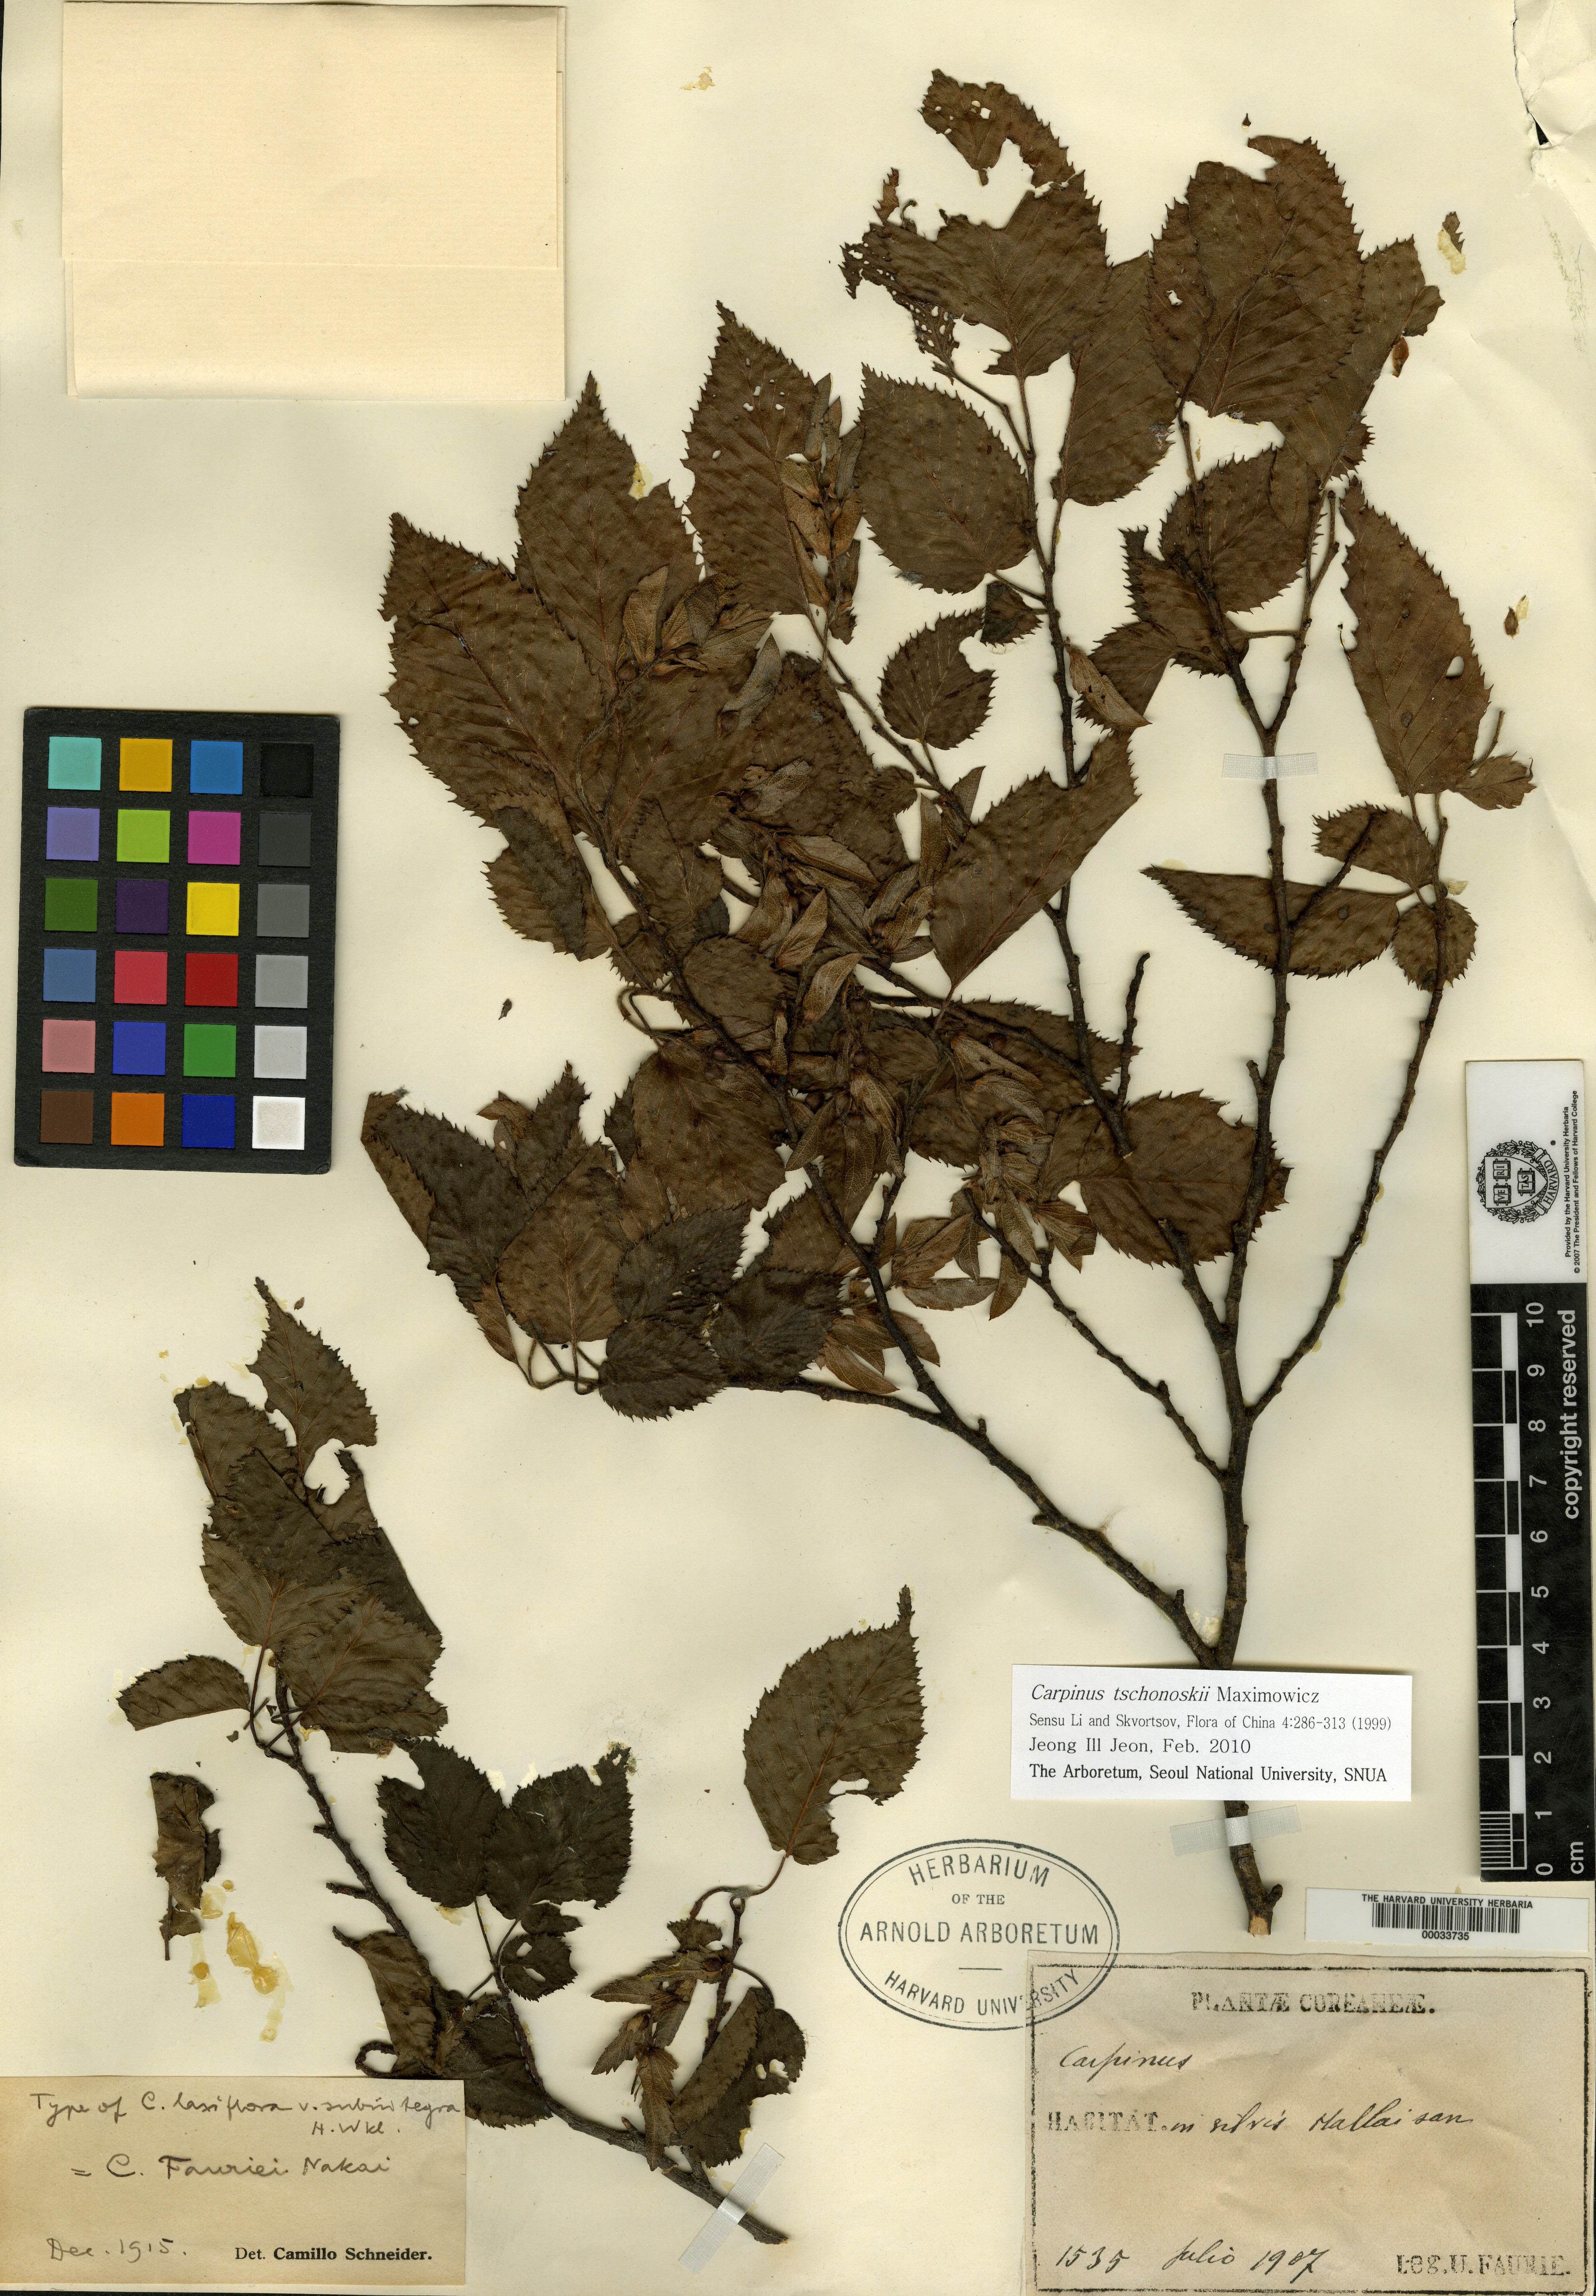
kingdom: Plantae
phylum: Tracheophyta
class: Magnoliopsida
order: Fagales
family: Betulaceae
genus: Carpinus
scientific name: Carpinus tschonoskii
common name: Asian hornbeam
